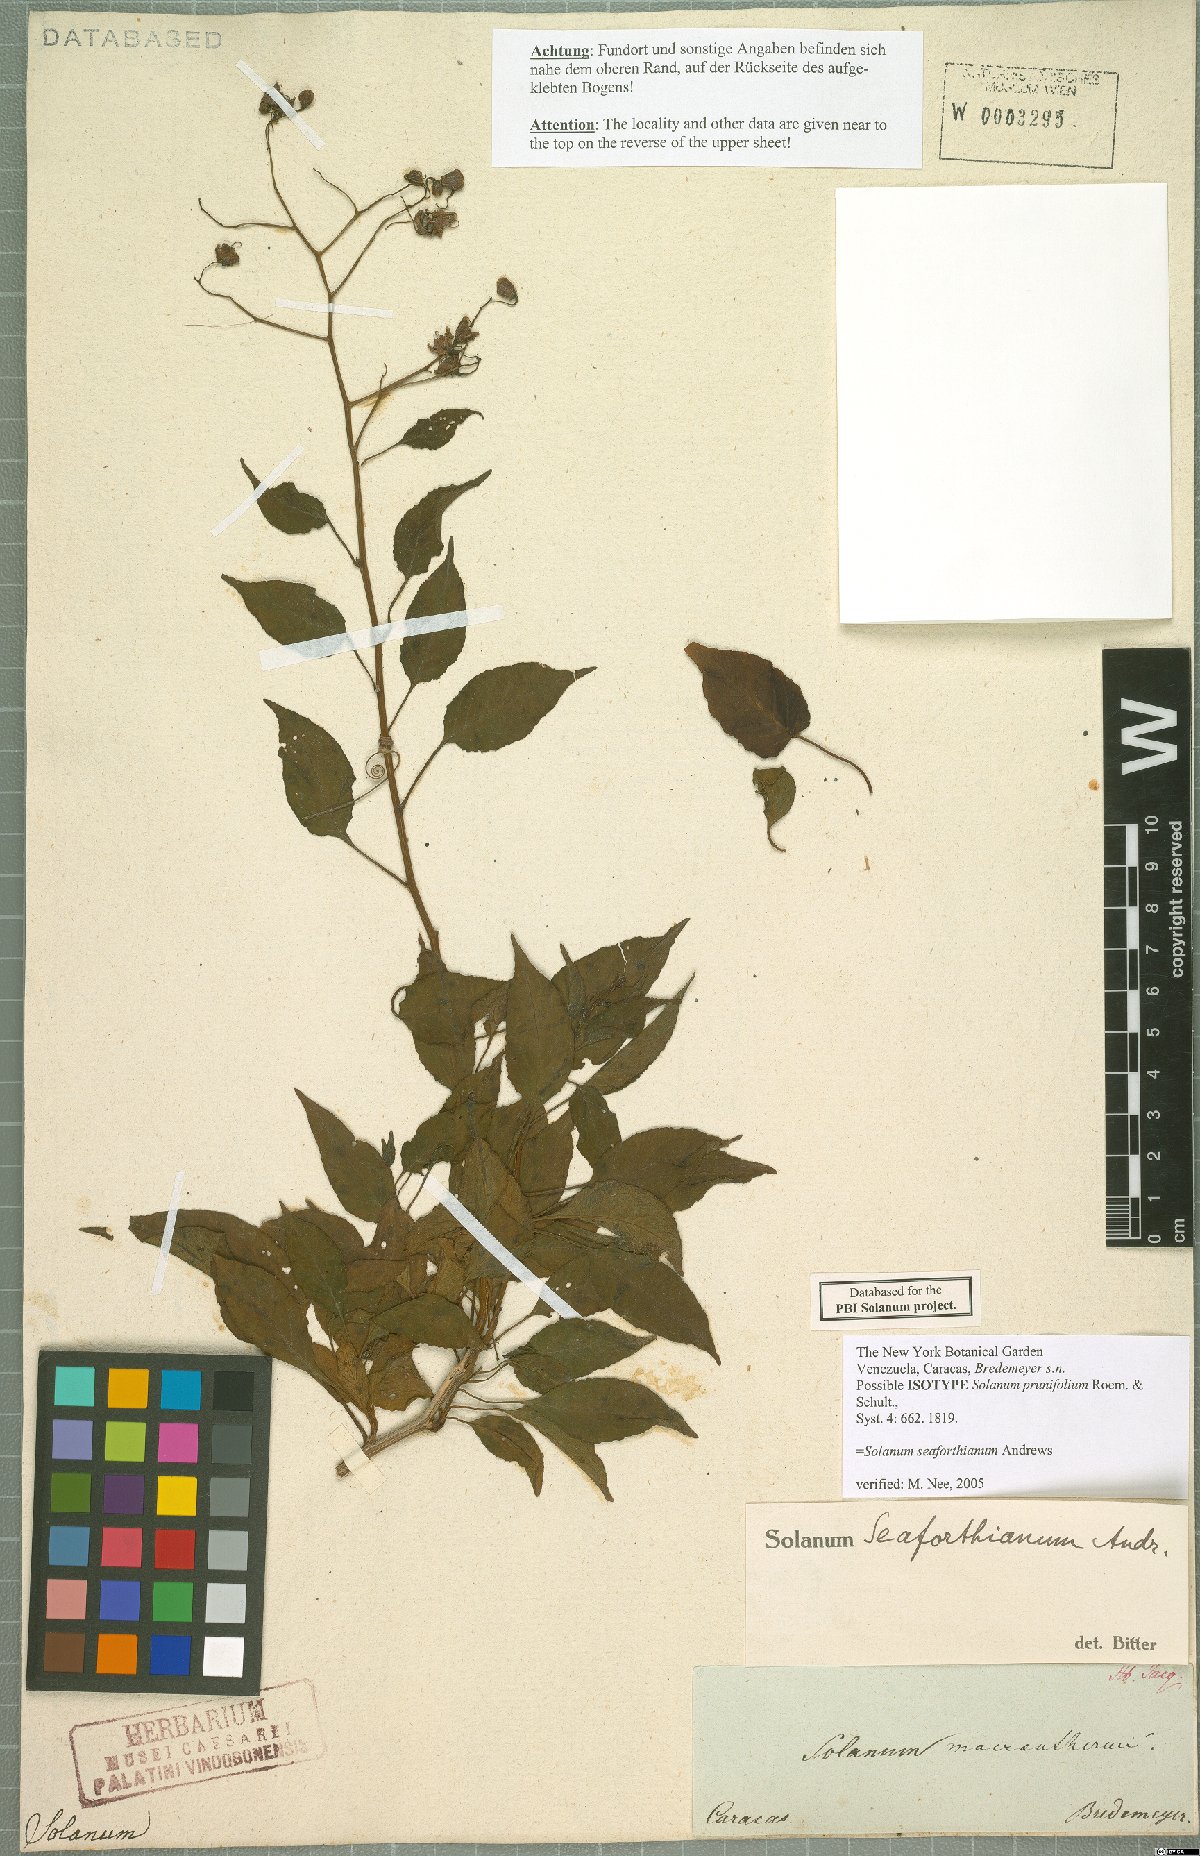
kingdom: Plantae
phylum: Tracheophyta
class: Magnoliopsida
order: Solanales
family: Solanaceae
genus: Solanum
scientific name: Solanum seaforthianum
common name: Brazilian nightshade
